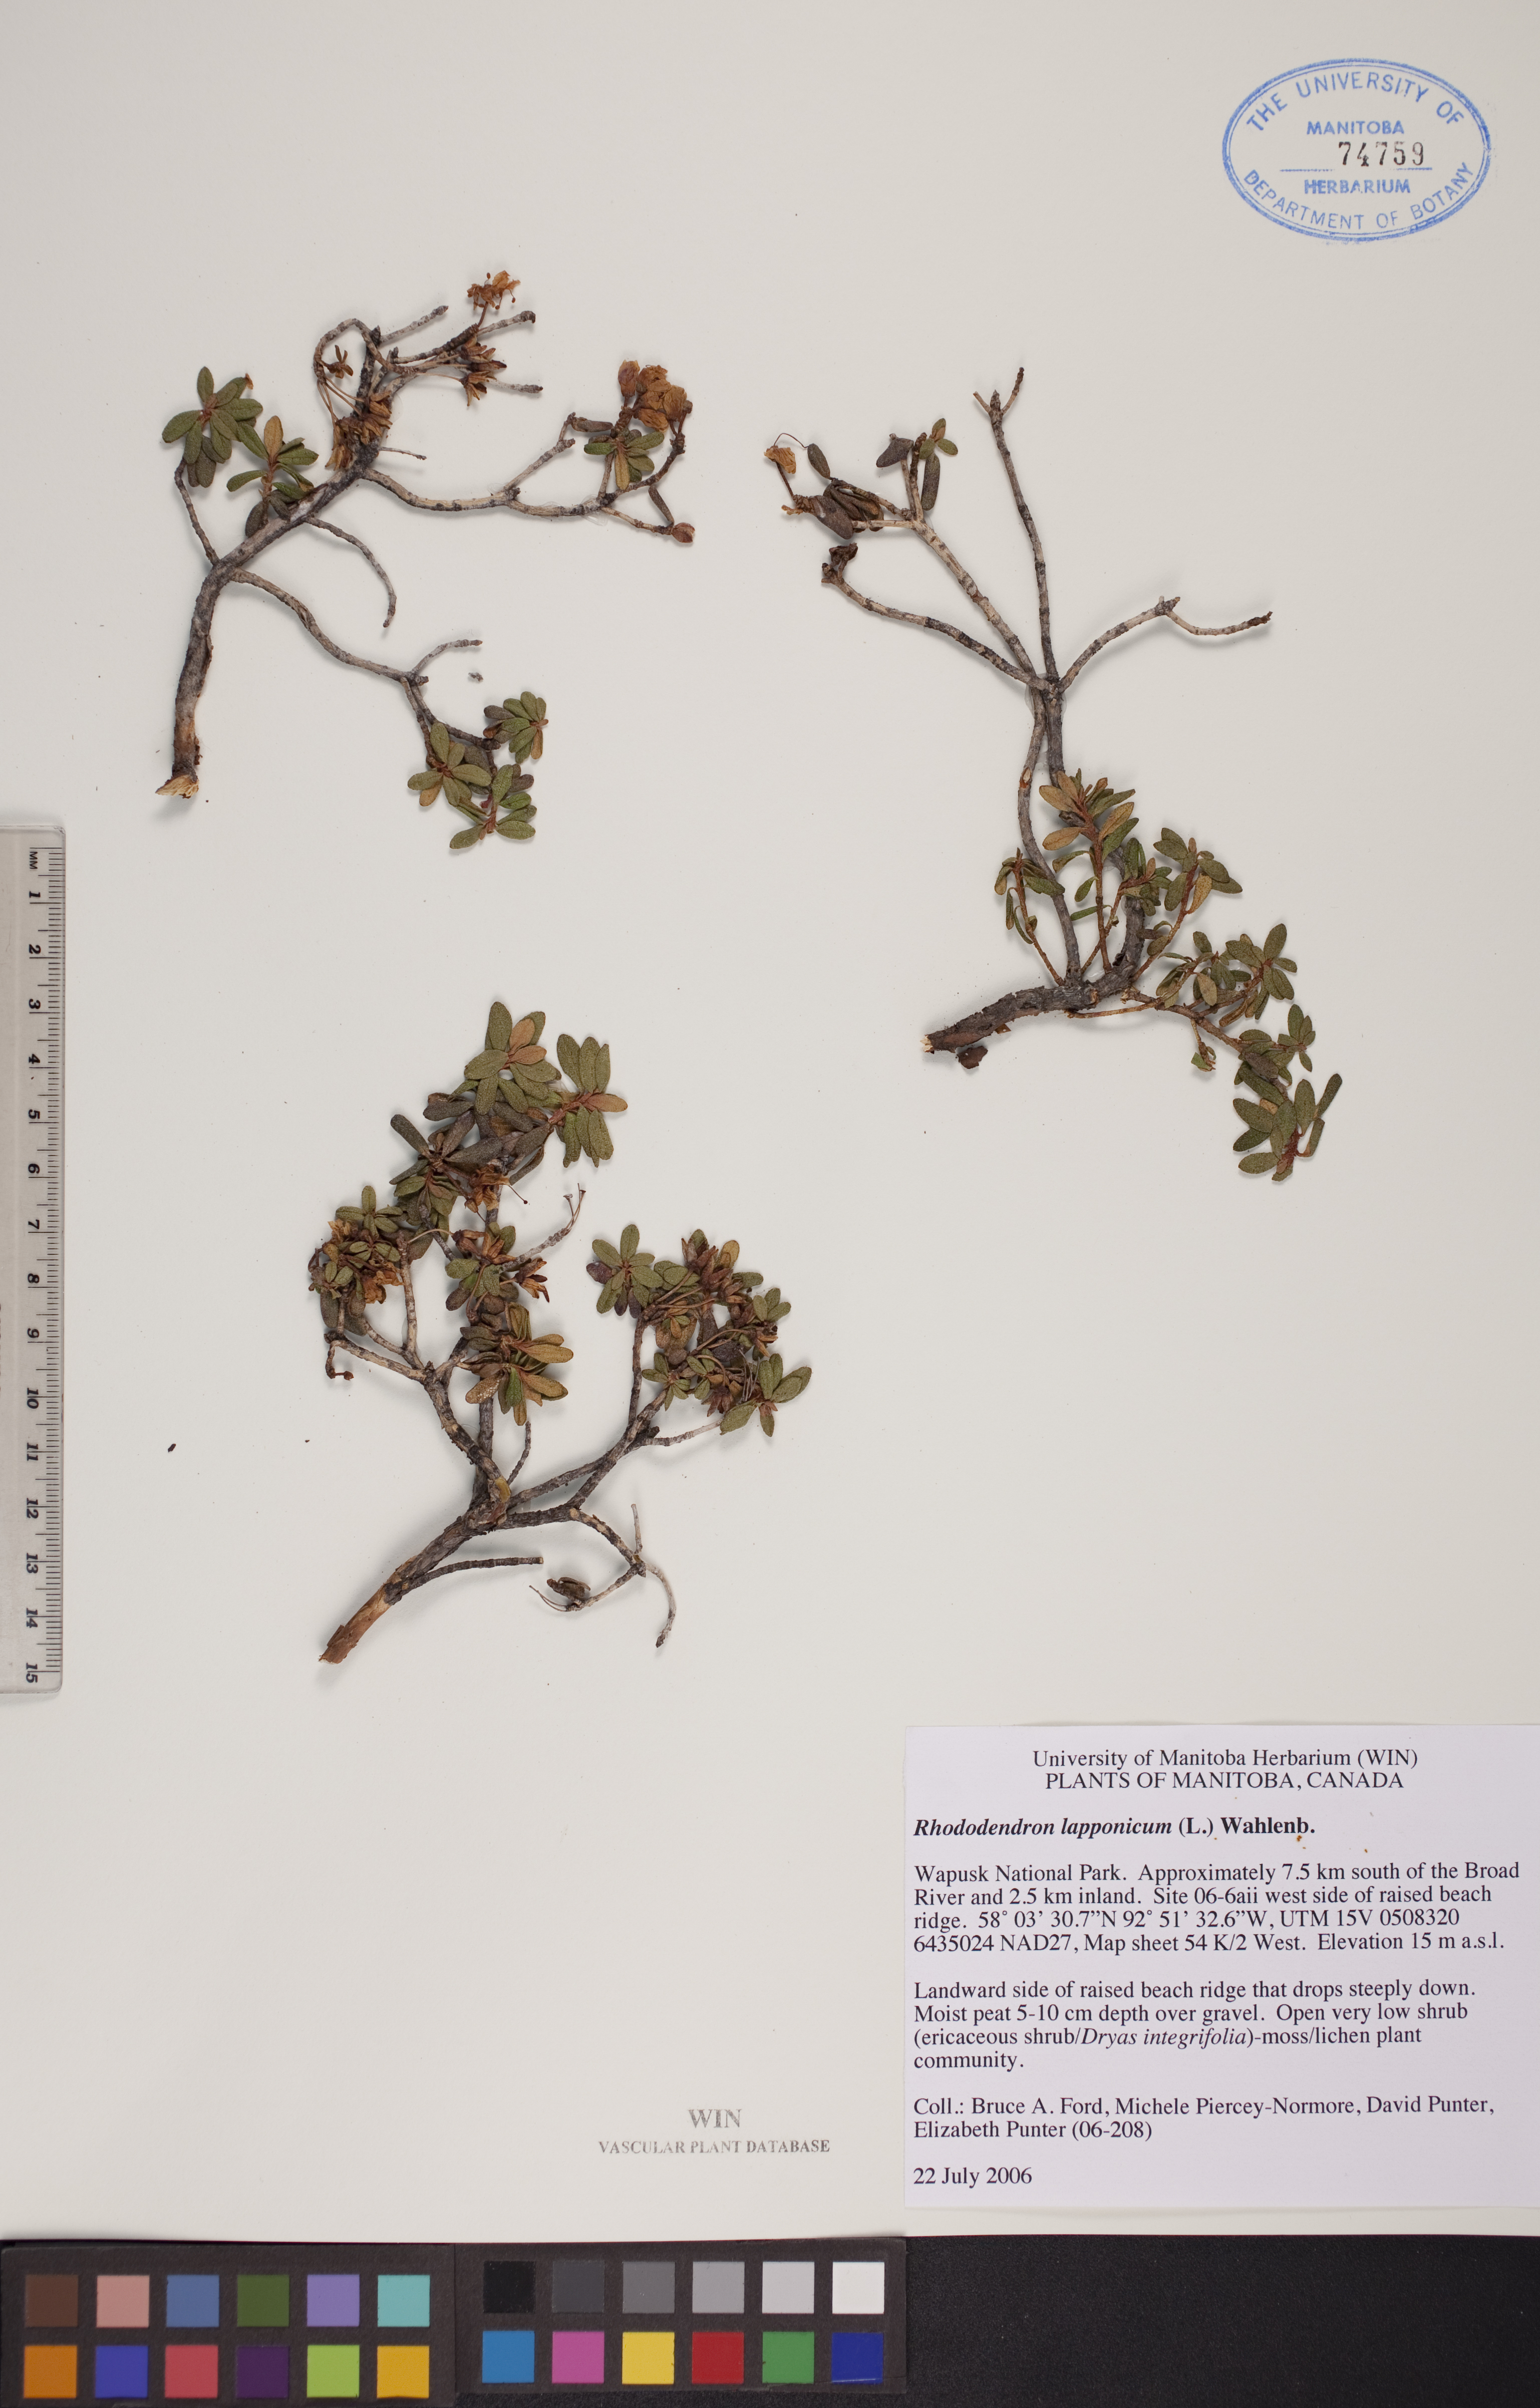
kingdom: Plantae
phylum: Tracheophyta
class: Magnoliopsida
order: Ericales
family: Ericaceae
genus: Rhododendron
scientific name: Rhododendron lapponicum
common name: Lapland rhododendron
